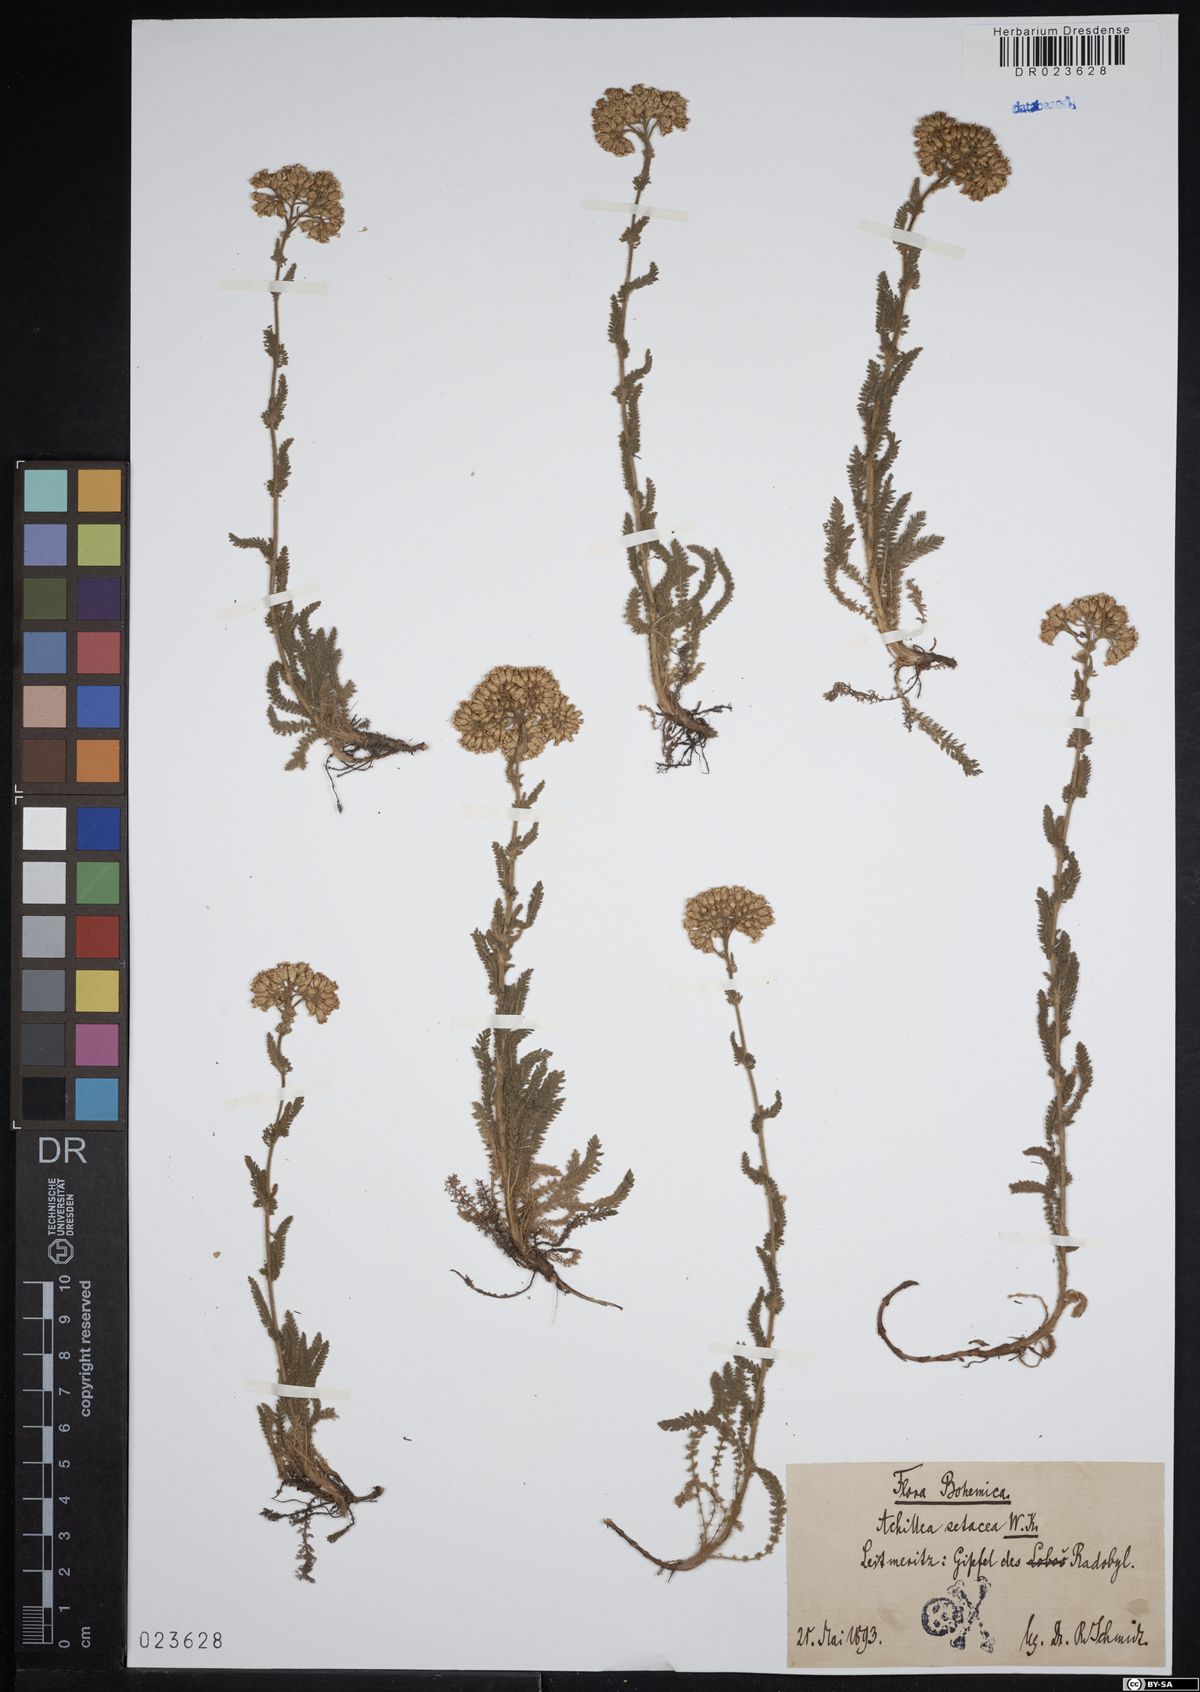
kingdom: Plantae
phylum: Tracheophyta
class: Magnoliopsida
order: Asterales
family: Asteraceae
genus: Achillea
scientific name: Achillea setacea
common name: Bristly yarrow
